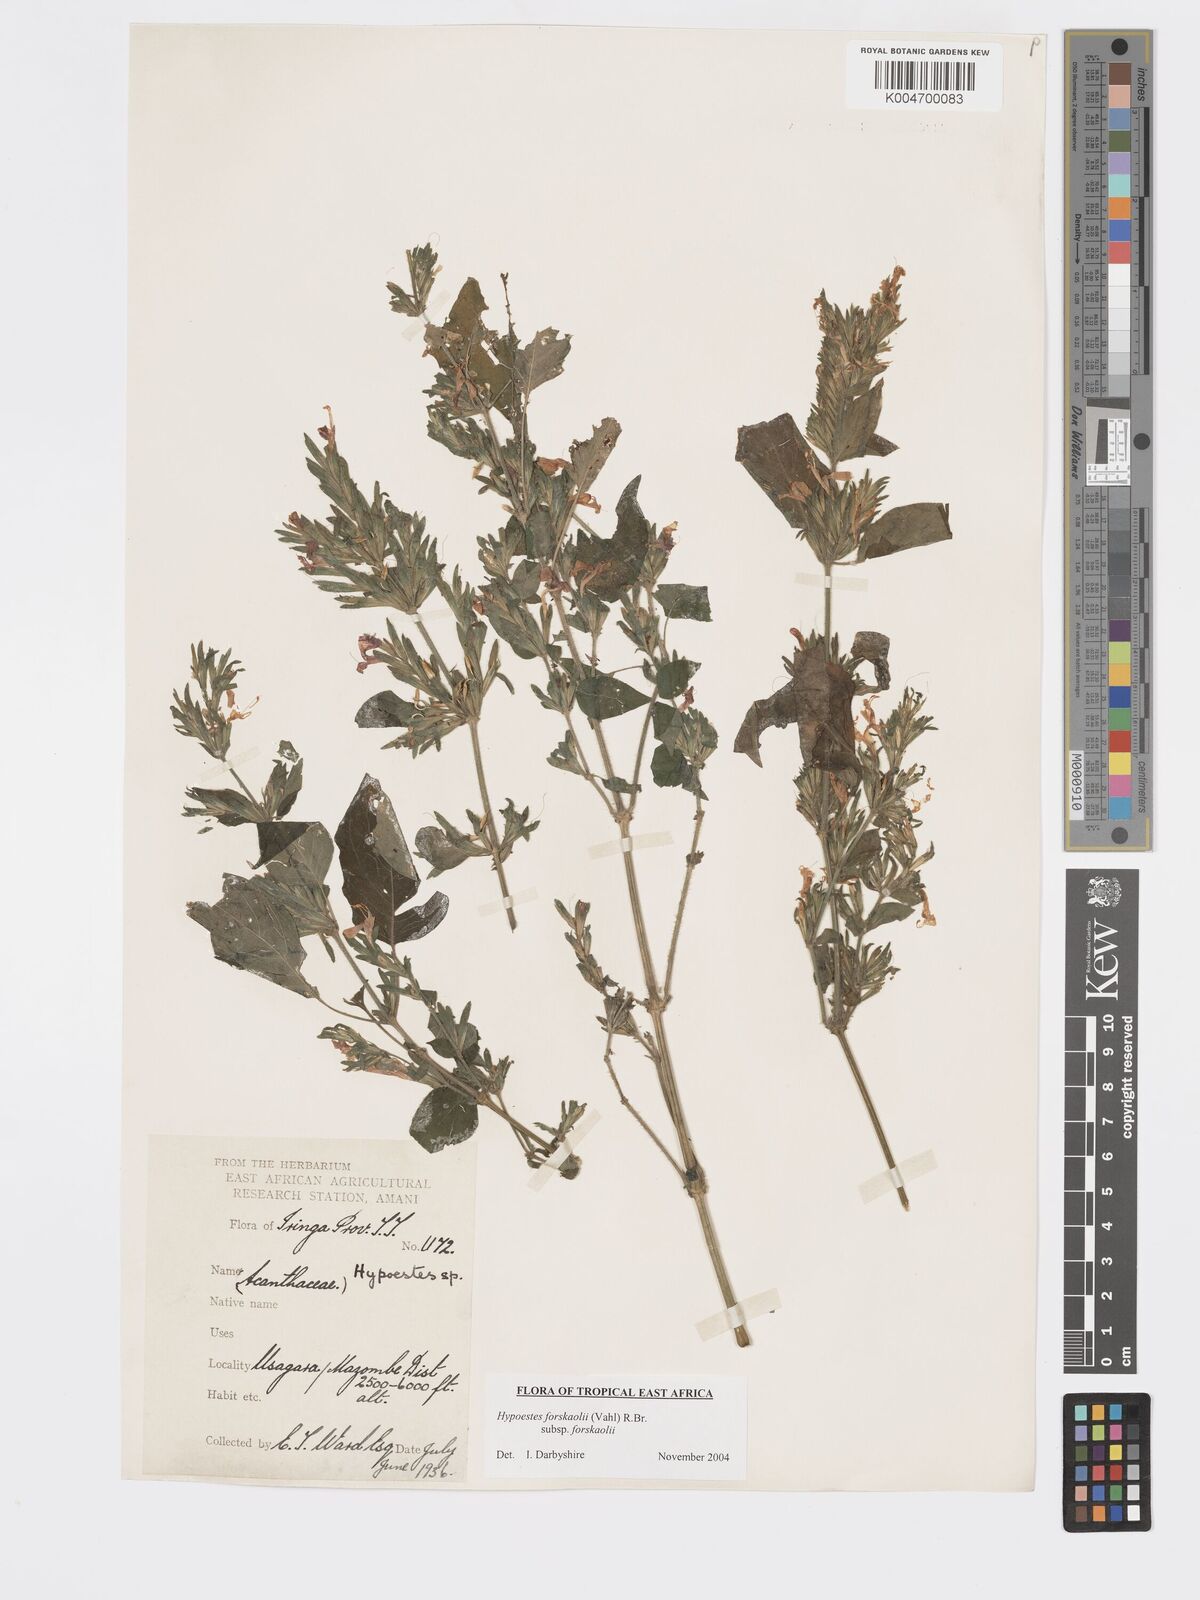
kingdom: Plantae
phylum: Tracheophyta
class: Magnoliopsida
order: Lamiales
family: Acanthaceae
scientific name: Acanthaceae
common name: Acanthaceae
